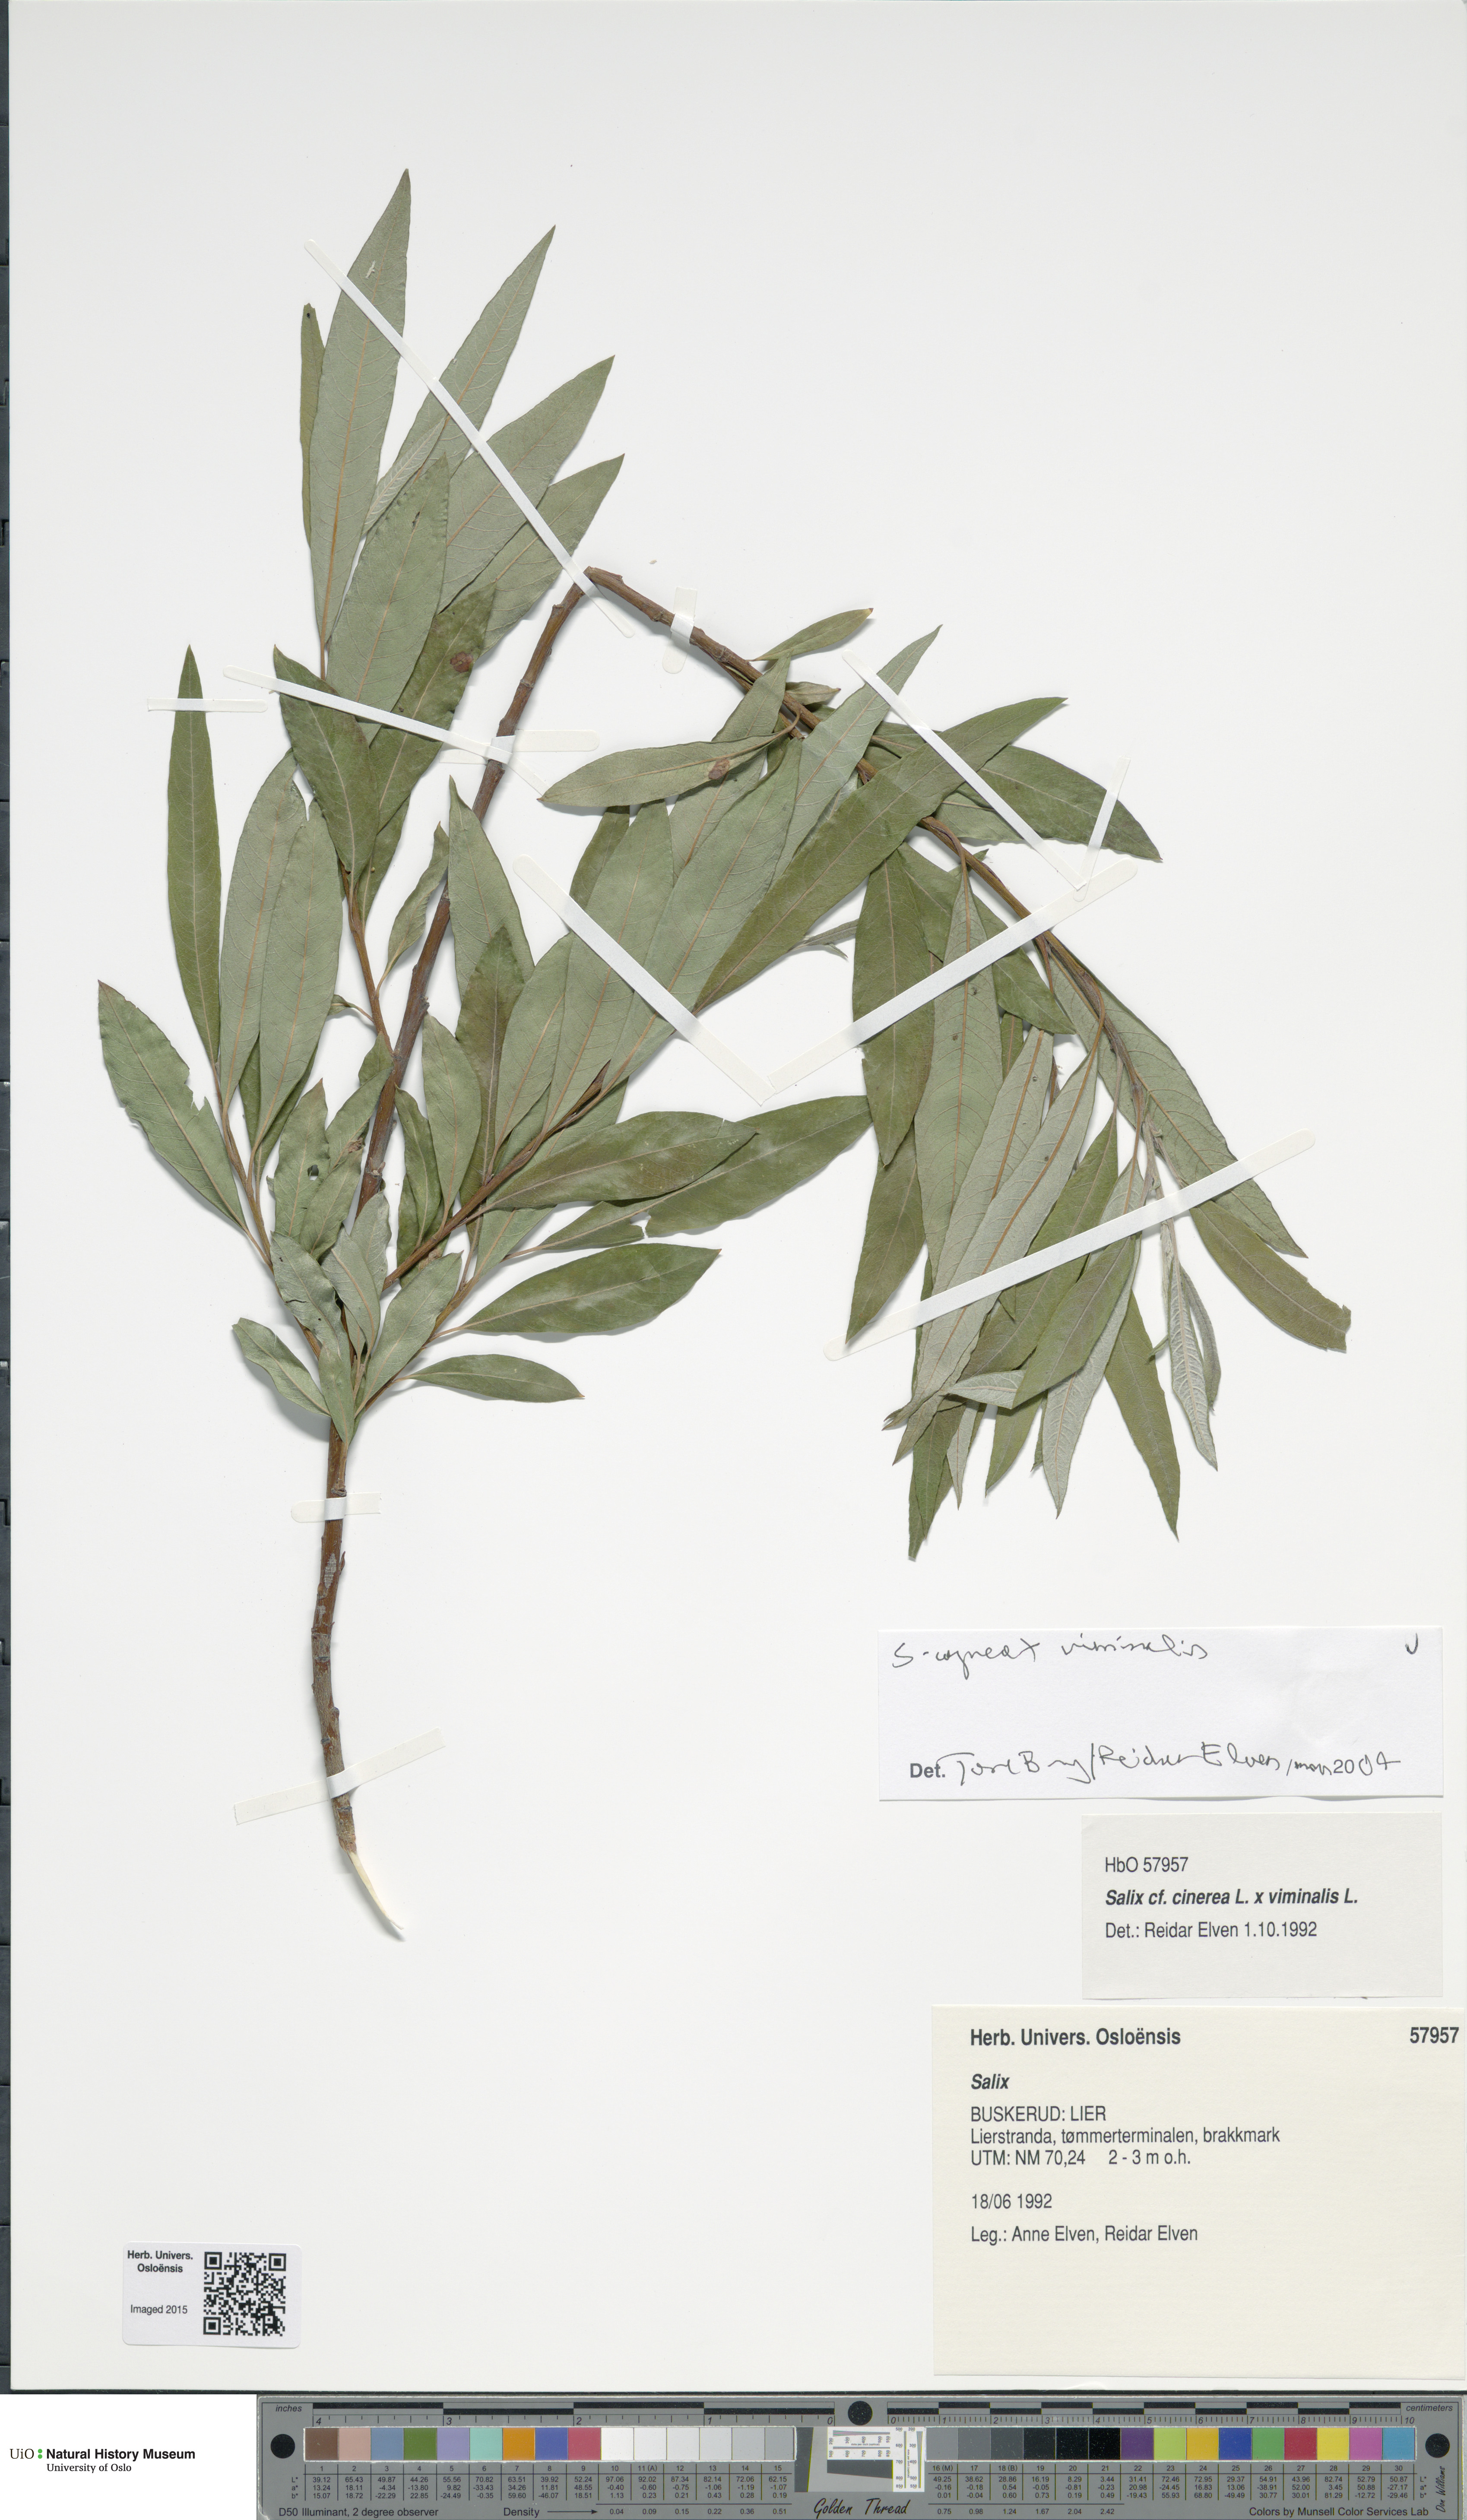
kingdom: Plantae
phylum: Tracheophyta
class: Magnoliopsida
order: Malpighiales
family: Salicaceae
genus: Salix
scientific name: Salix
